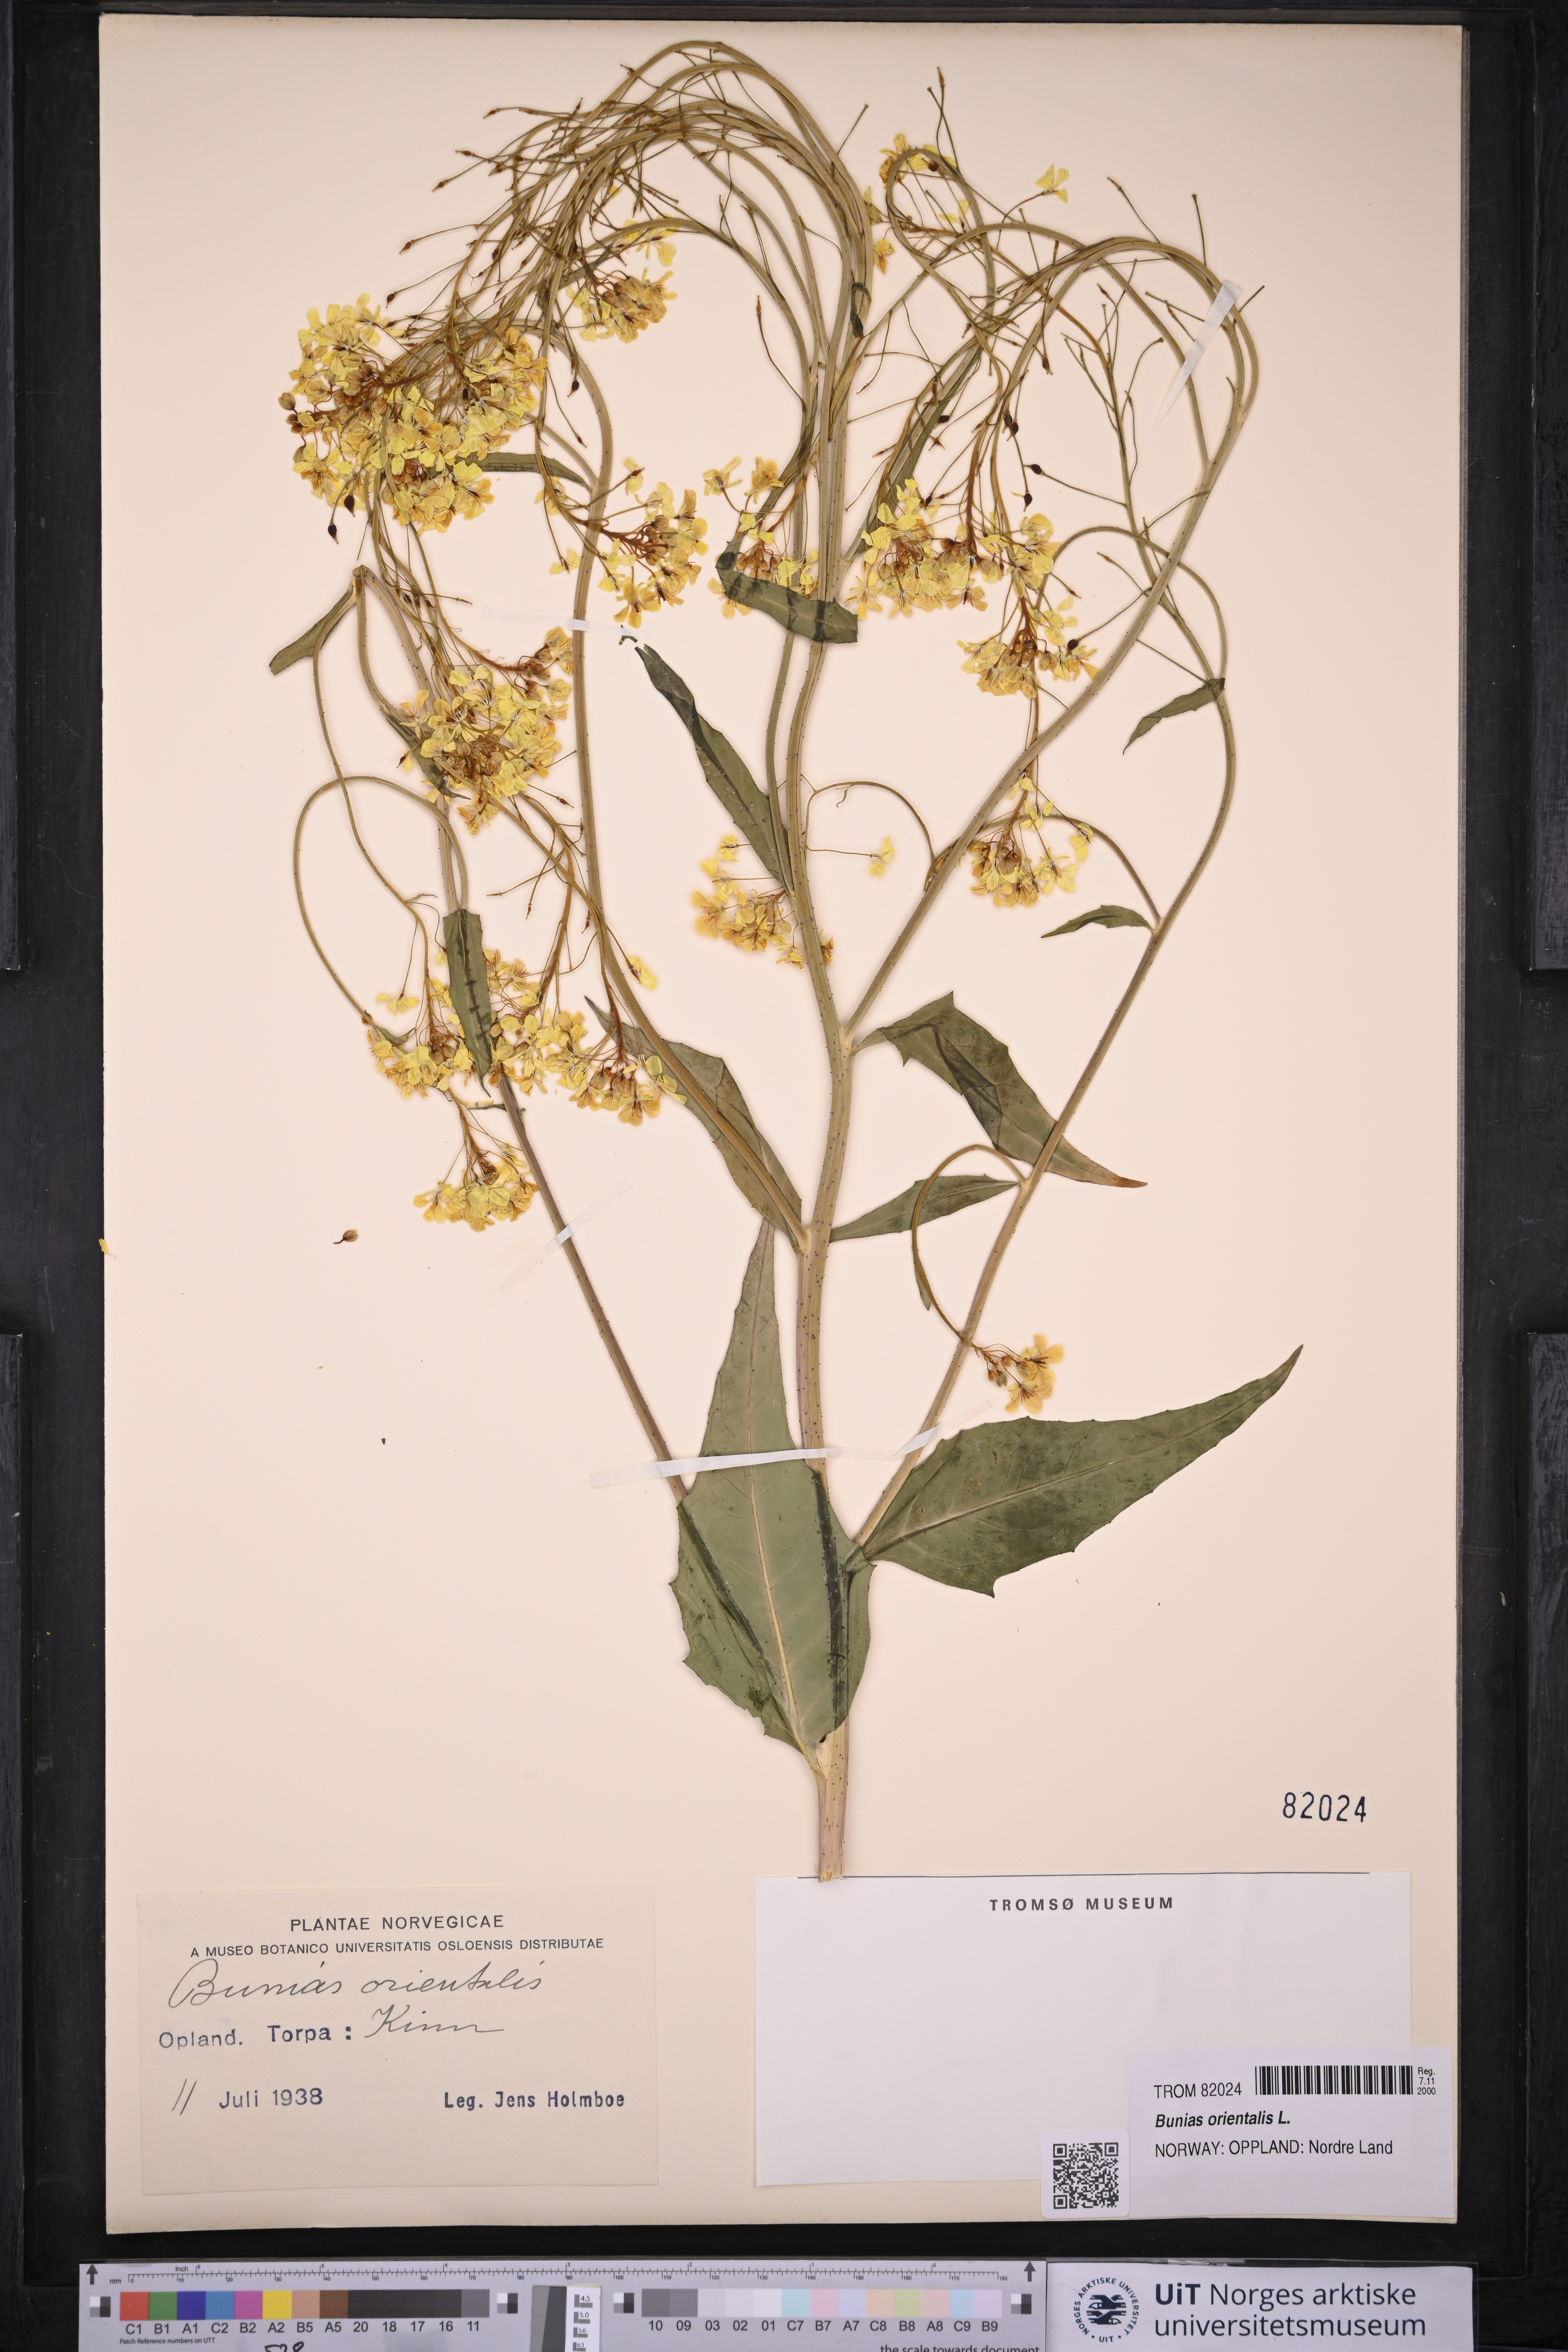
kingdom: Plantae
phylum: Tracheophyta
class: Magnoliopsida
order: Brassicales
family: Brassicaceae
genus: Bunias
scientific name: Bunias orientalis
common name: Warty-cabbage
